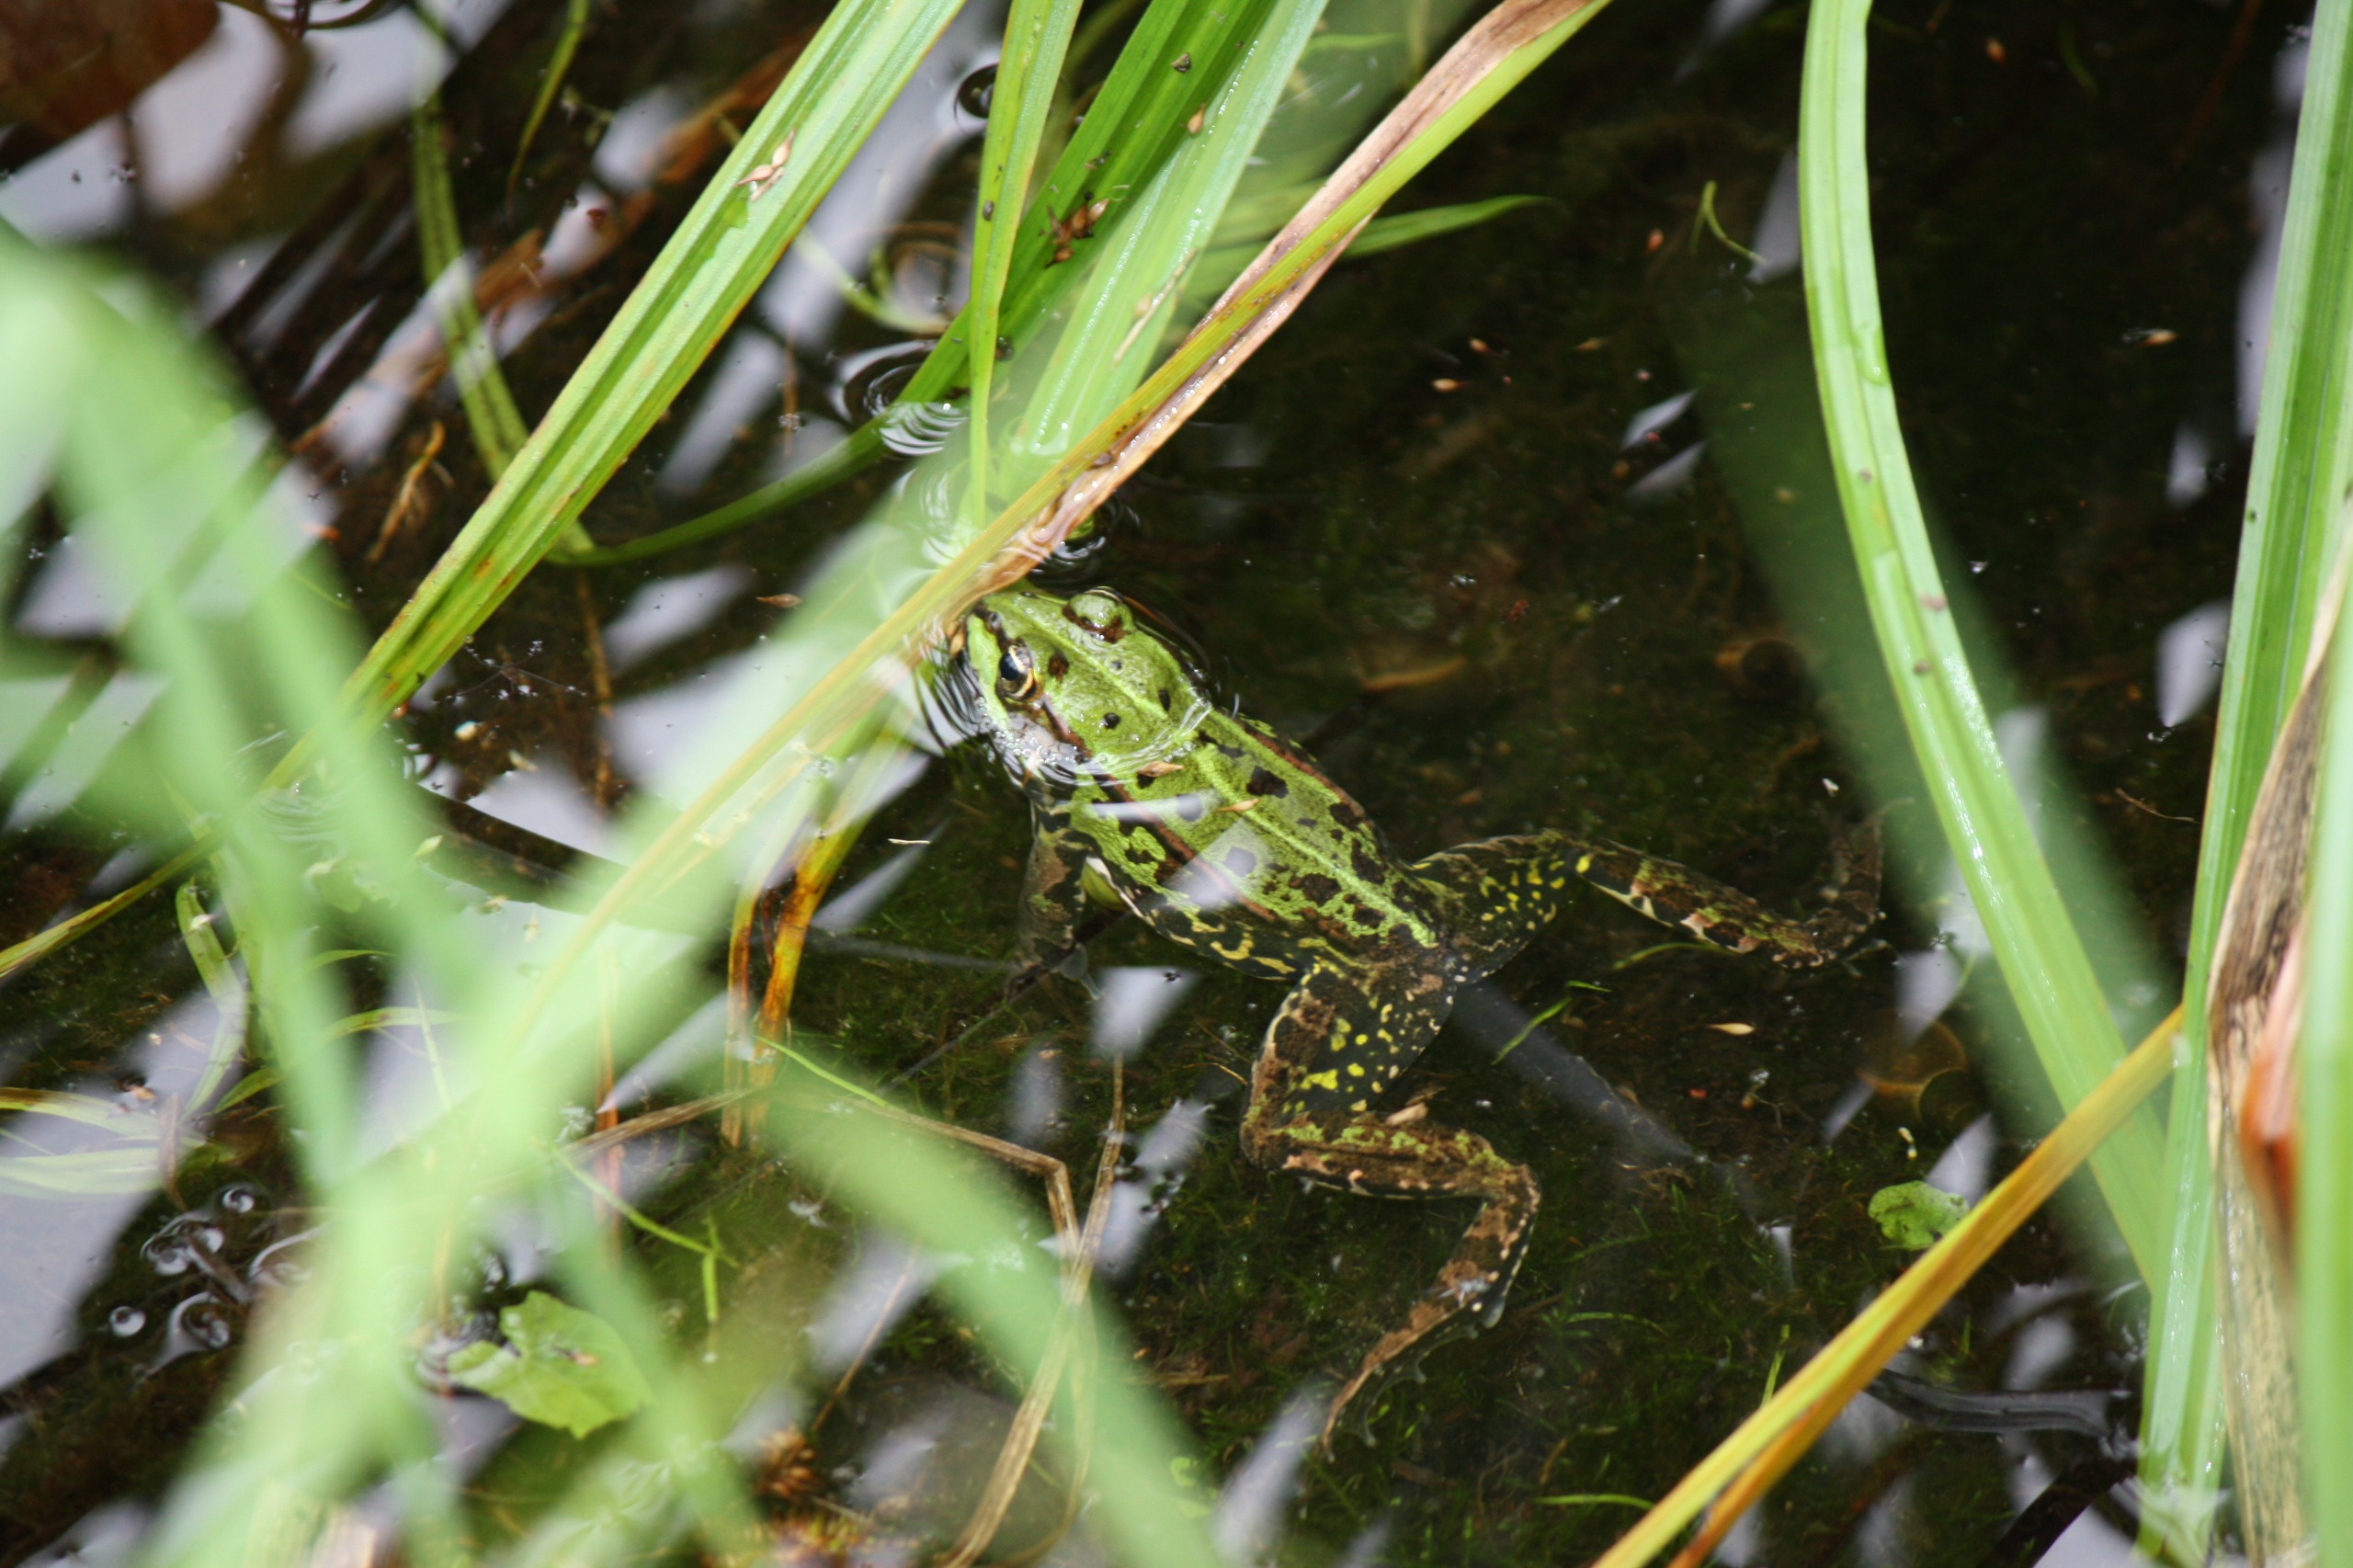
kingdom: Animalia
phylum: Chordata
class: Amphibia
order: Anura
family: Ranidae
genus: Pelophylax
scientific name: Pelophylax lessonae
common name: Grøn frø
